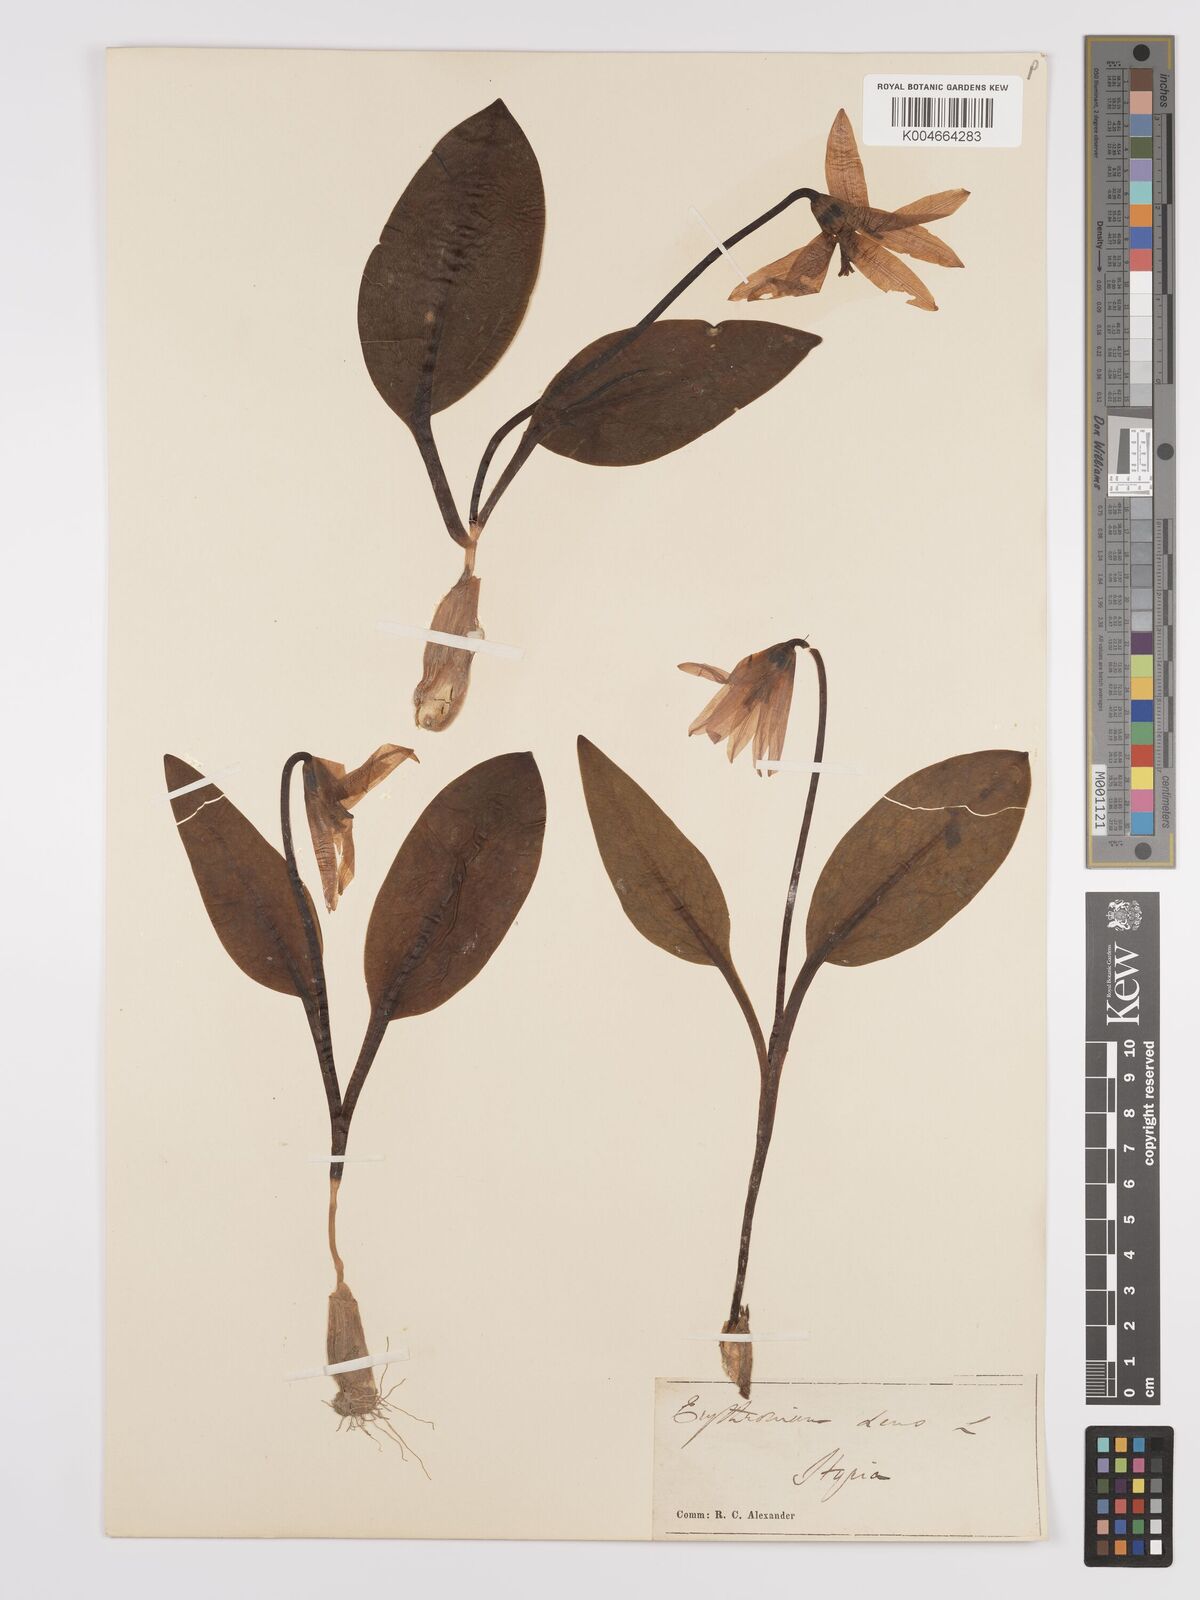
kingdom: Plantae
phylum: Tracheophyta
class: Liliopsida
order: Liliales
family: Liliaceae
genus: Erythronium
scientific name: Erythronium dens-canis
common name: Dog's-tooth-violet
